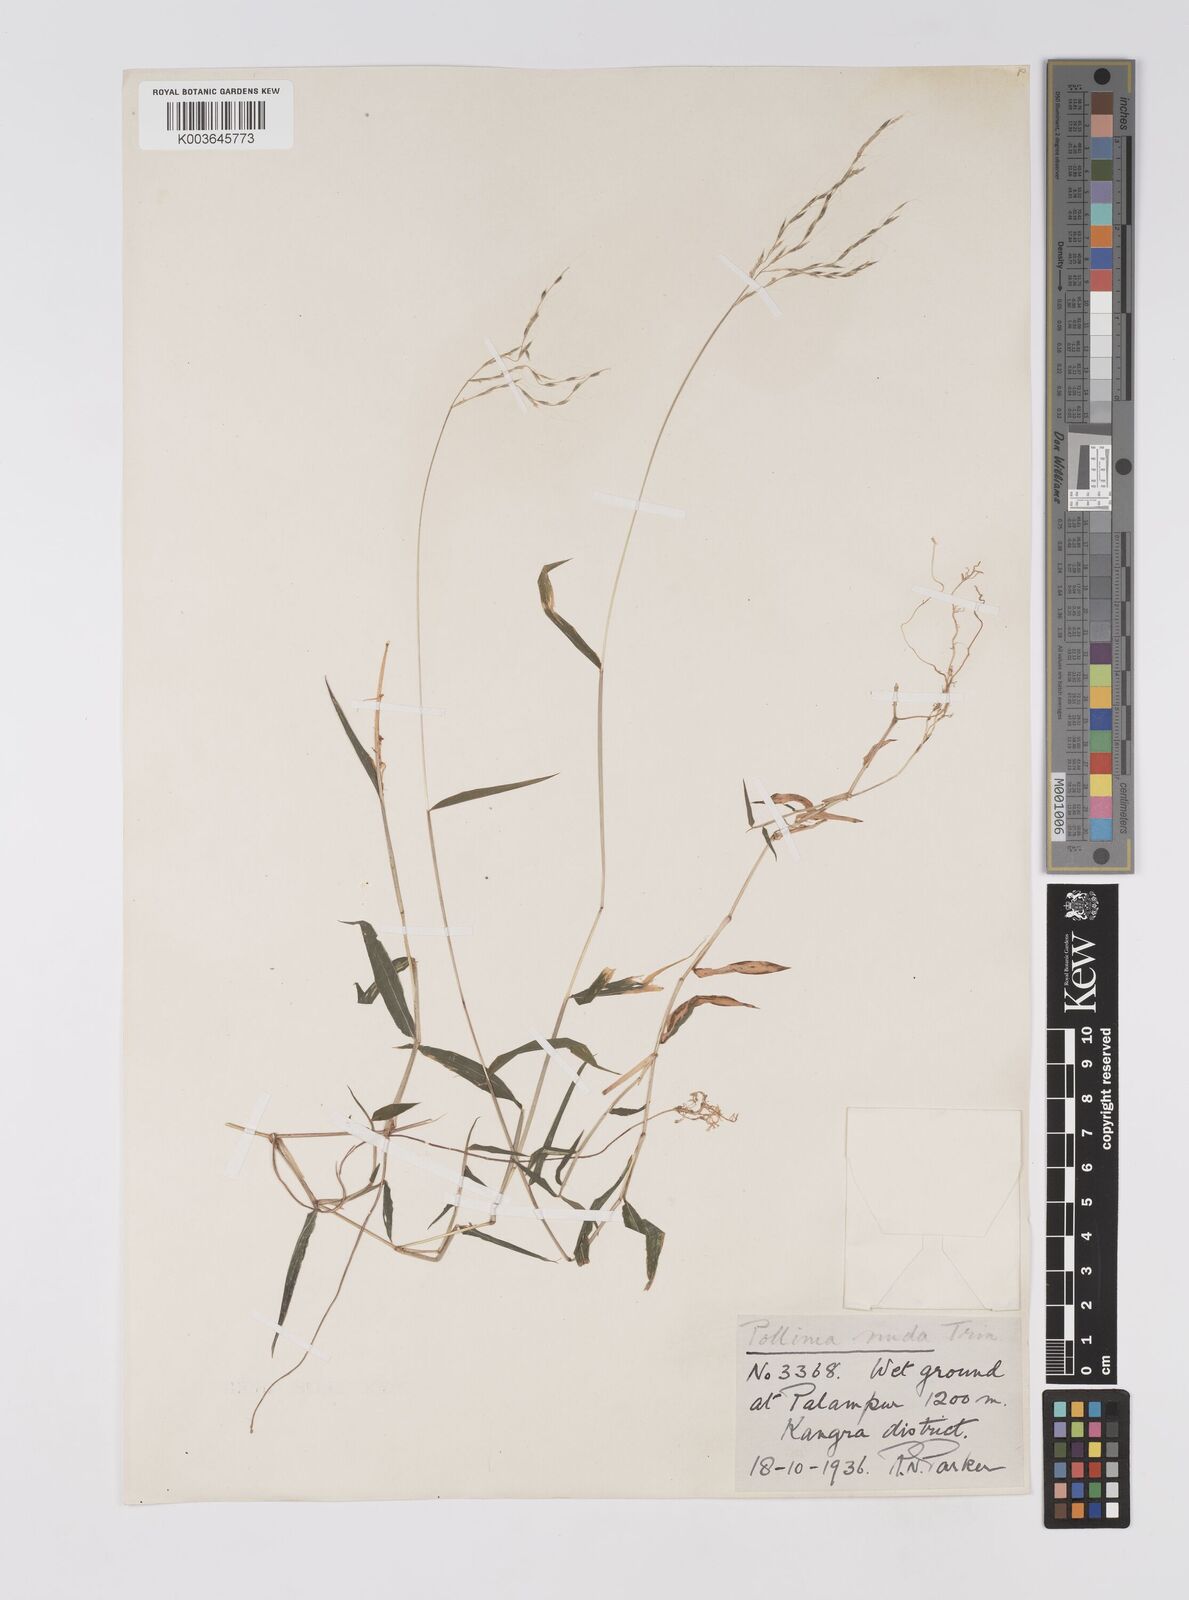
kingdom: Plantae
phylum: Tracheophyta
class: Liliopsida
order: Poales
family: Poaceae
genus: Microstegium
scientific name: Microstegium nudum
